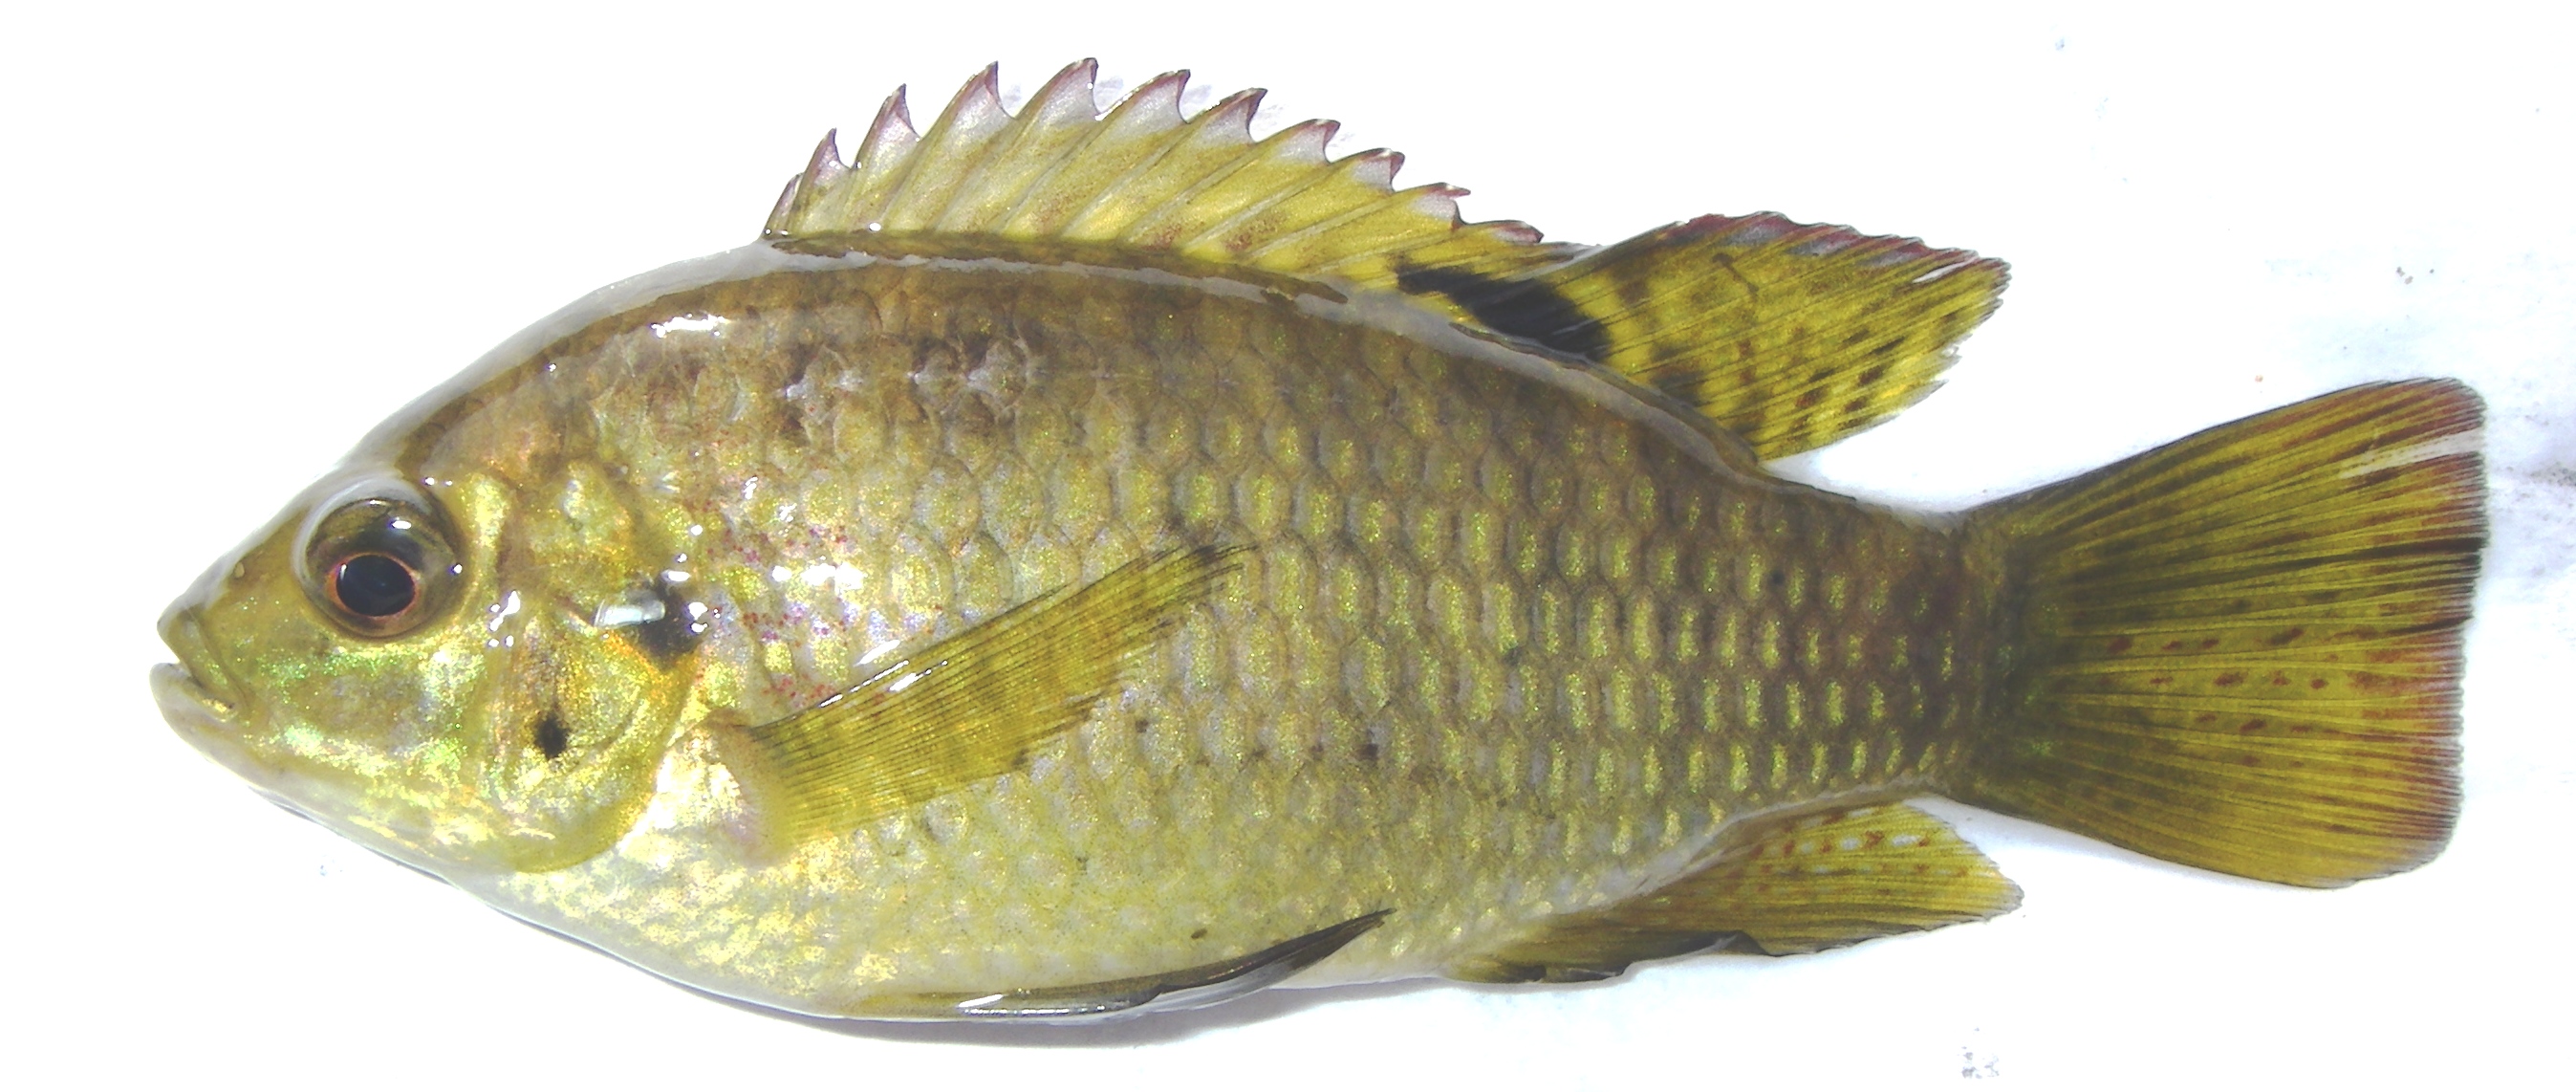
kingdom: Animalia
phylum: Chordata
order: Perciformes
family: Cichlidae
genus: Tilapia
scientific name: Tilapia sparrmanii
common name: Banded tilapia
